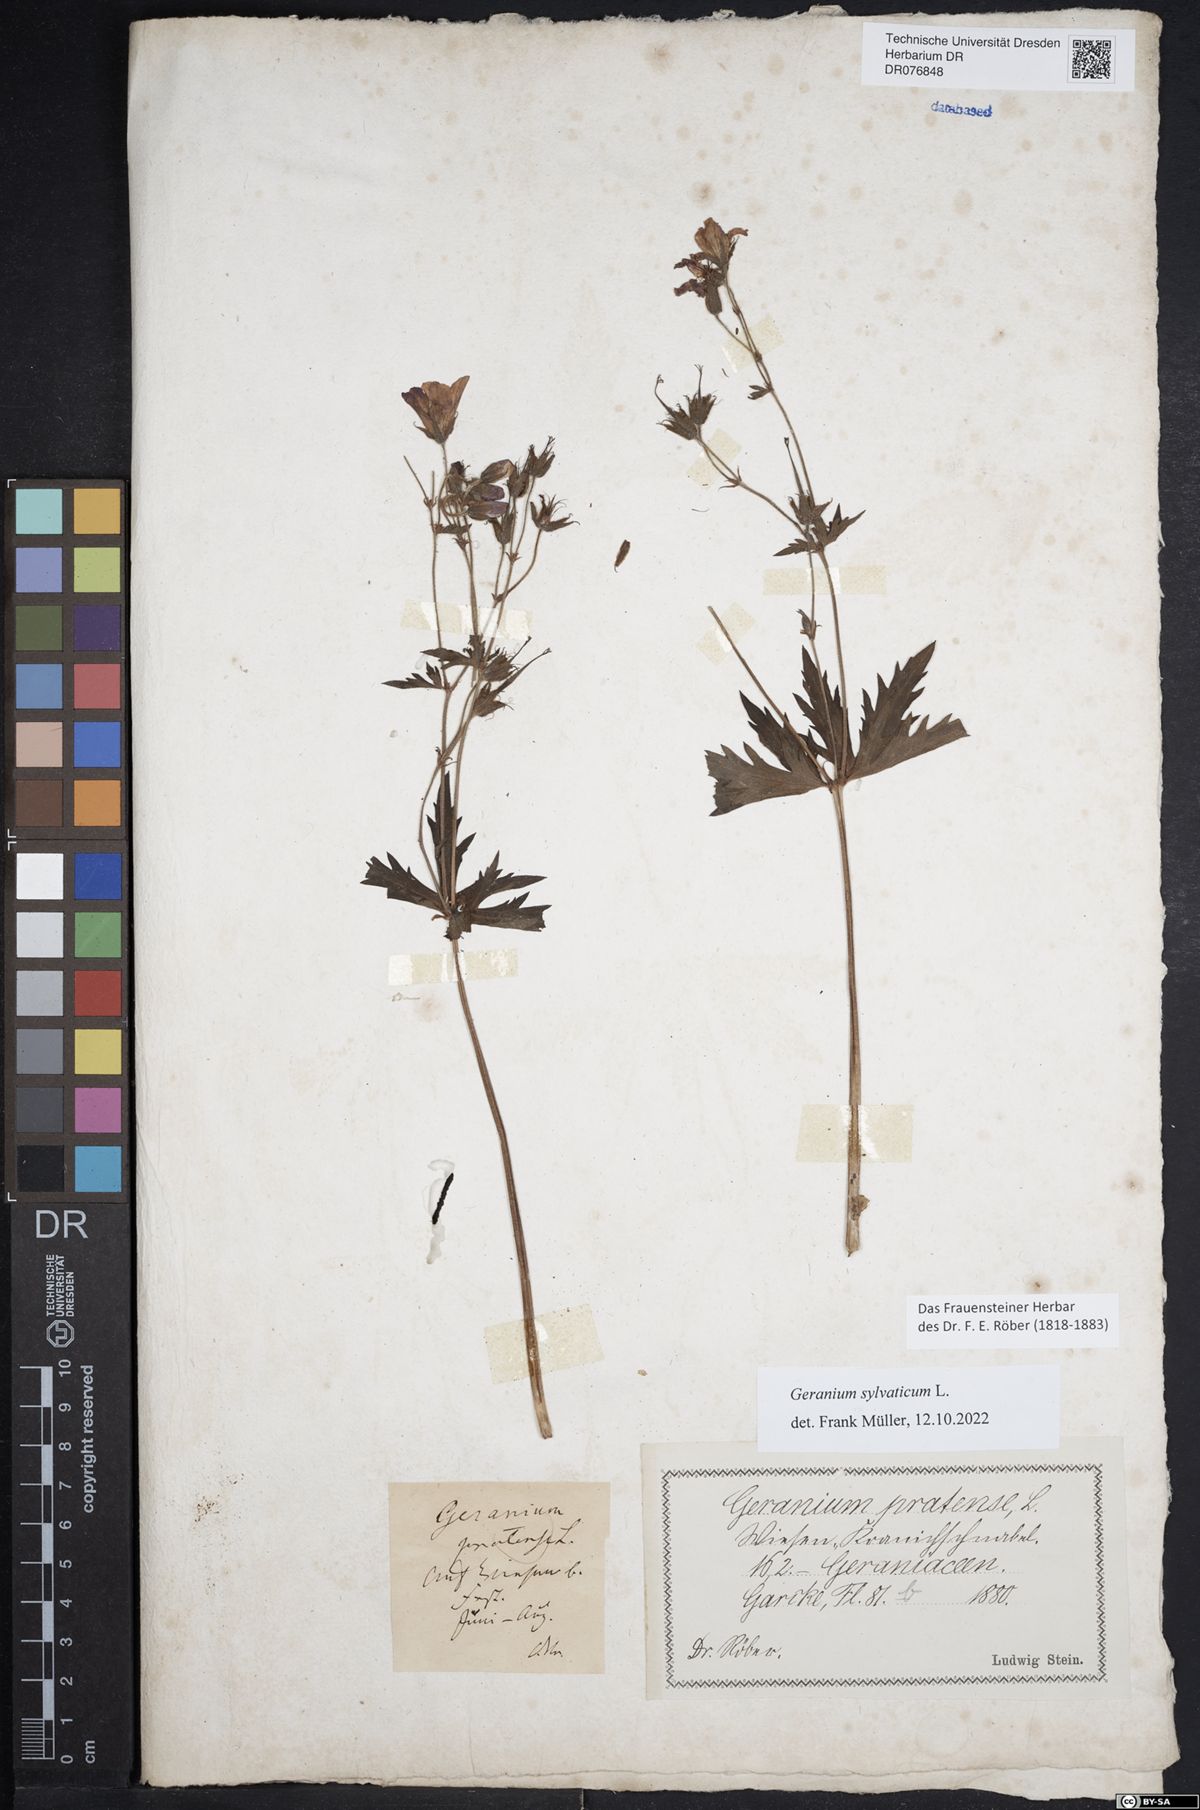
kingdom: Plantae
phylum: Tracheophyta
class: Magnoliopsida
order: Geraniales
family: Geraniaceae
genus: Geranium
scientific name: Geranium sylvaticum
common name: Wood crane's-bill
